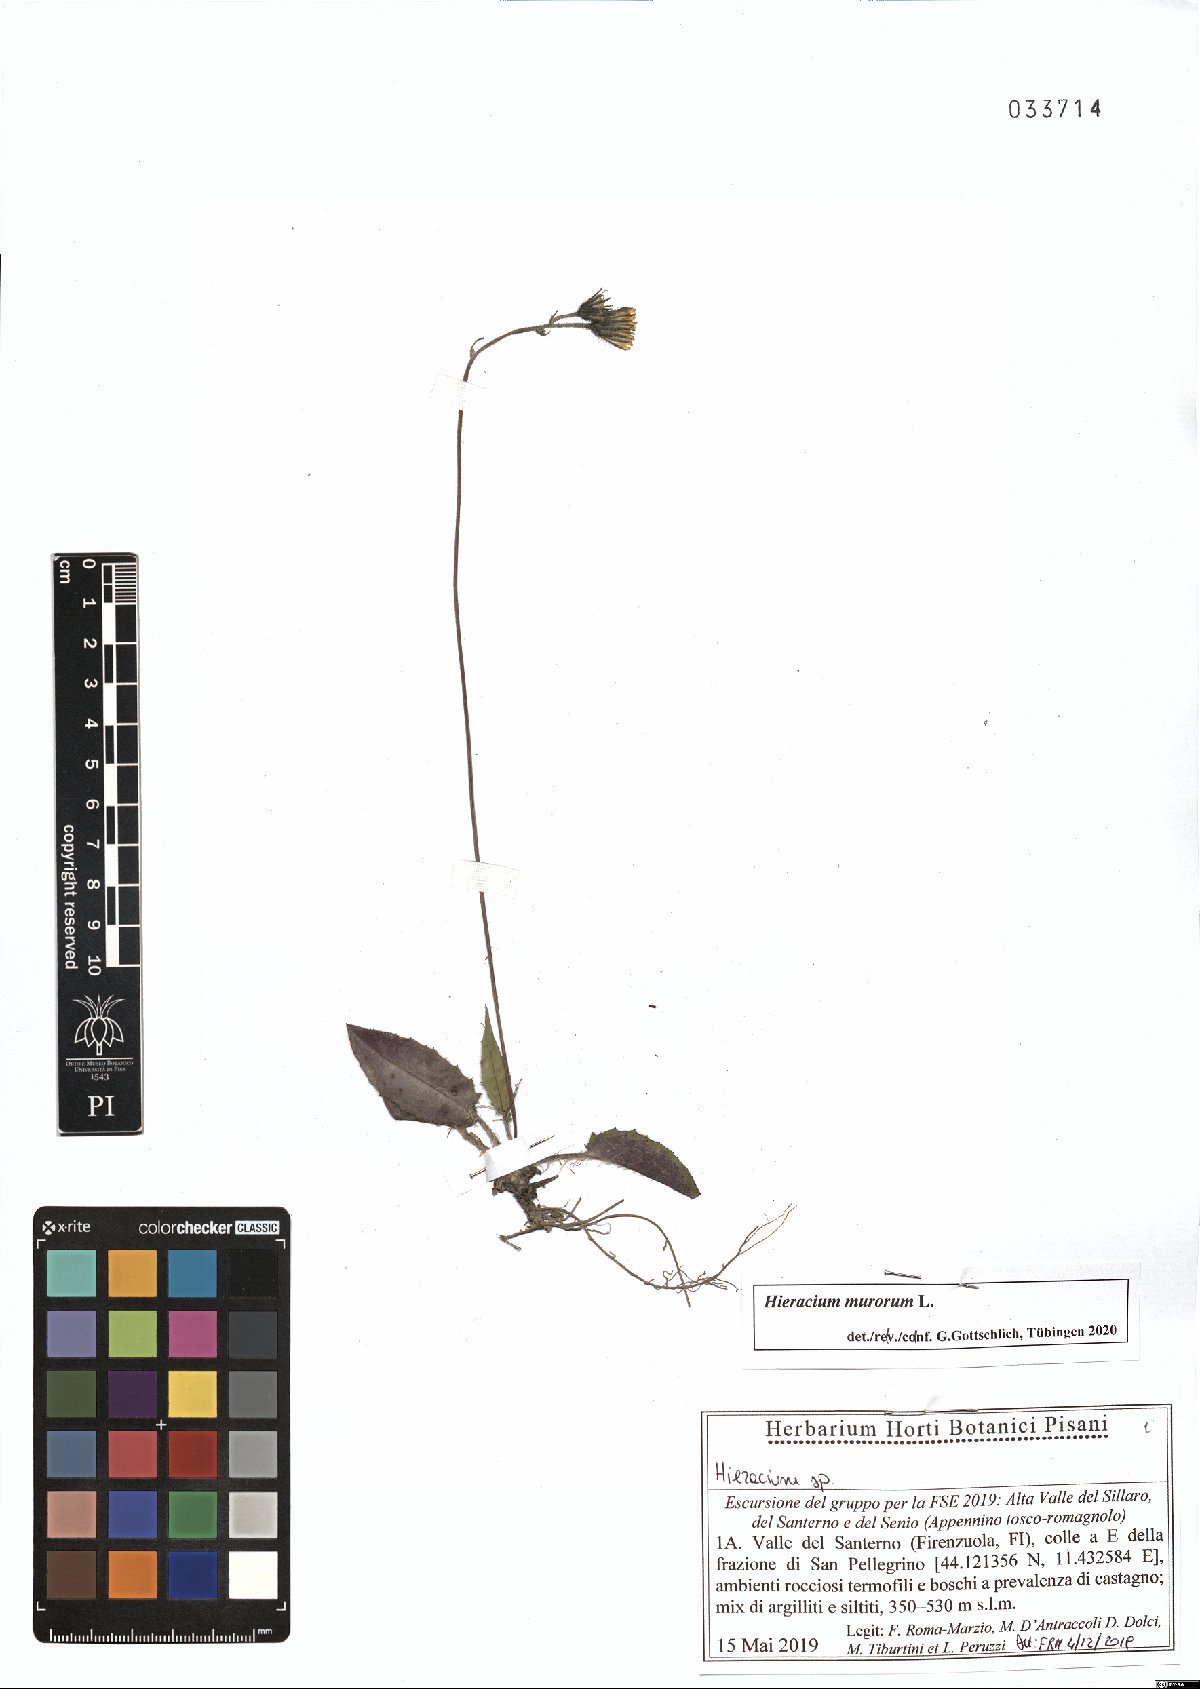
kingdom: Plantae
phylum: Tracheophyta
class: Magnoliopsida
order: Asterales
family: Asteraceae
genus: Hieracium
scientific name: Hieracium murorum
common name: Wall hawkweed
